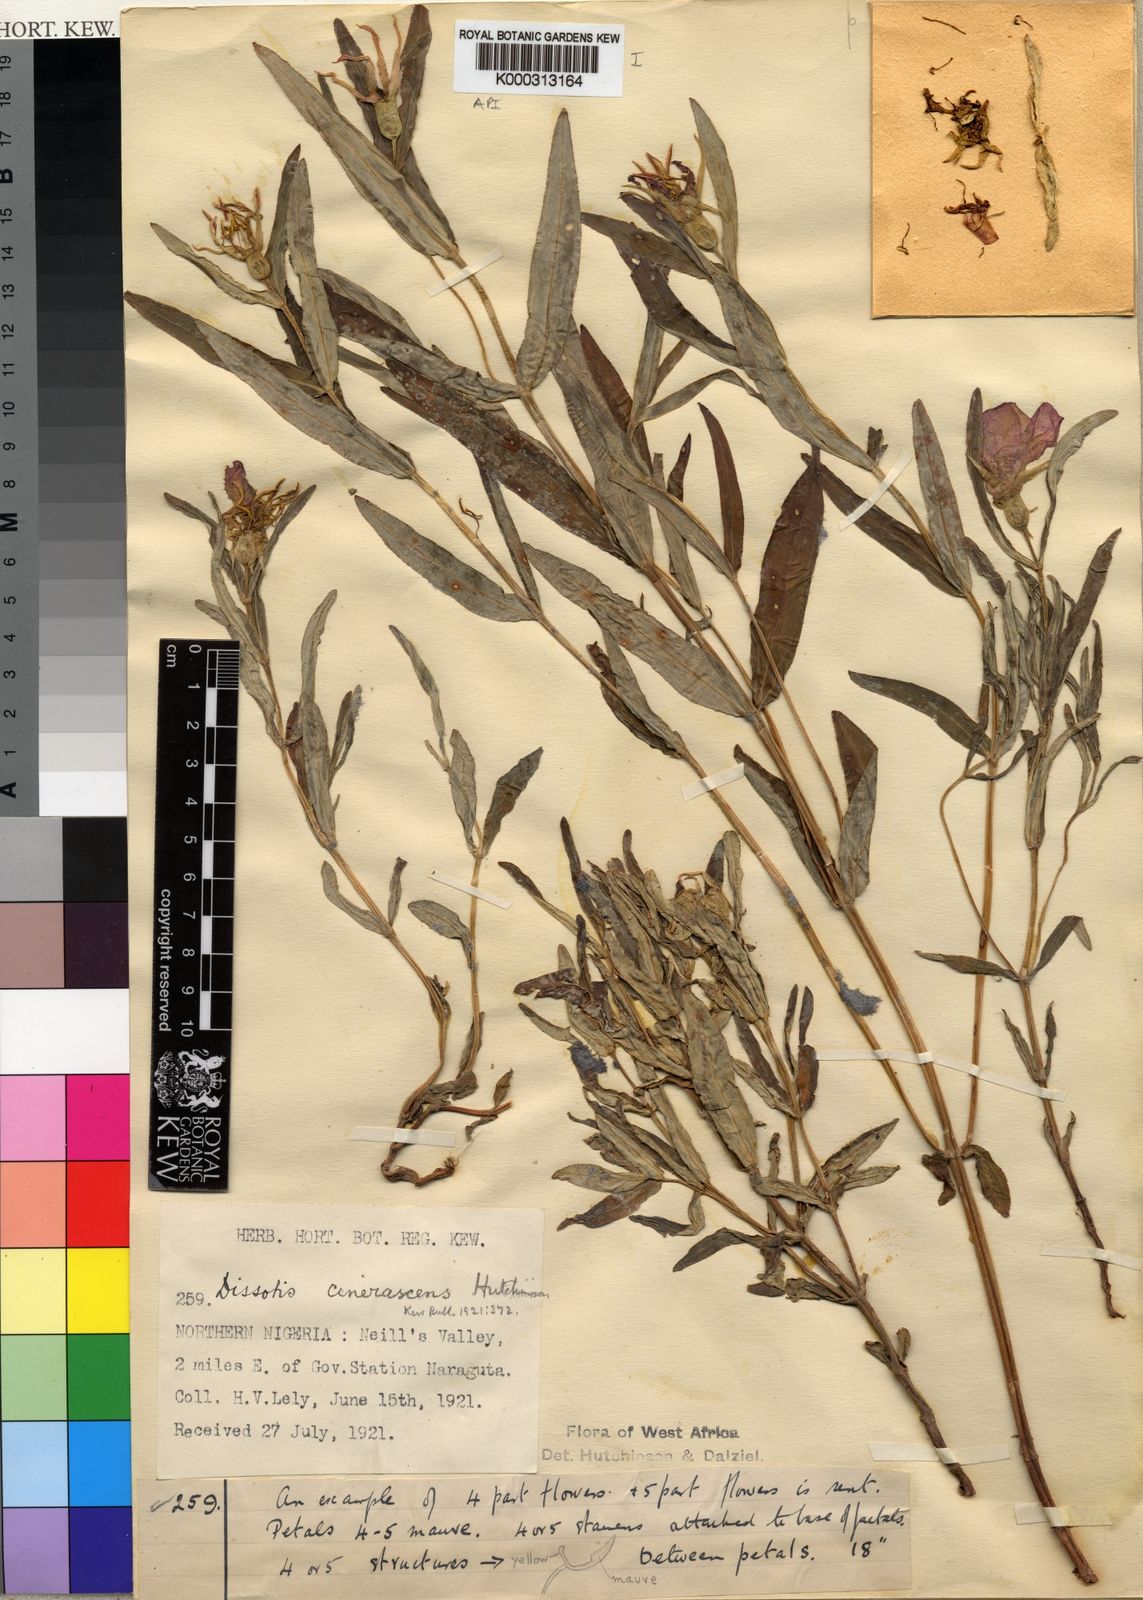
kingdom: Plantae
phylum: Tracheophyta
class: Magnoliopsida
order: Myrtales
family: Melastomataceae
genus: Heterotis
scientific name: Heterotis
